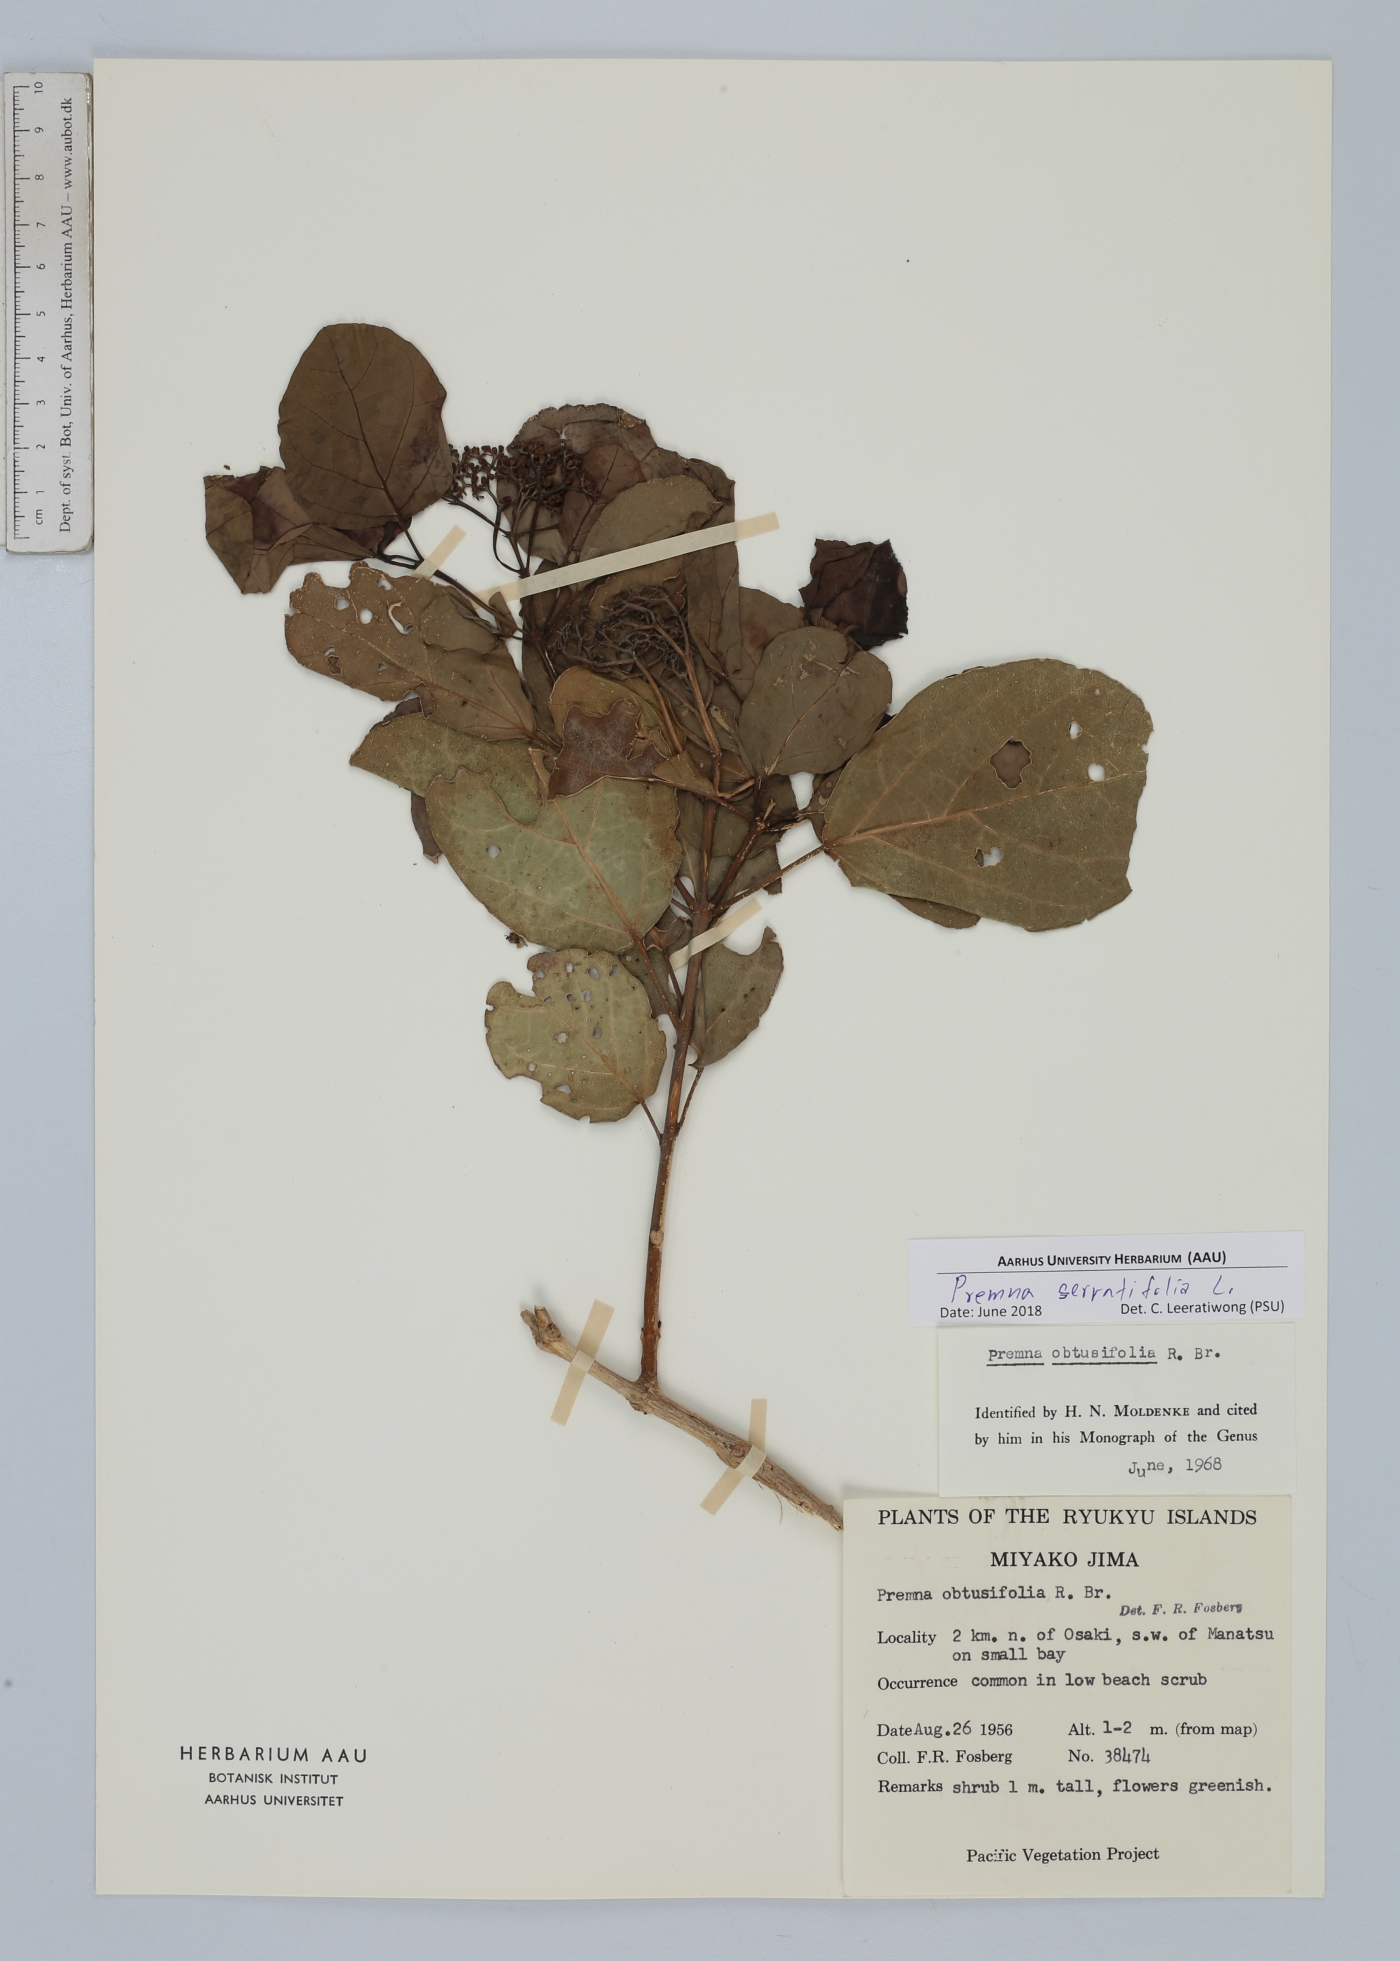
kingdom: Plantae
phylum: Tracheophyta
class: Magnoliopsida
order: Lamiales
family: Lamiaceae
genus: Premna
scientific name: Premna serratifolia
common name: Bastard guelder
